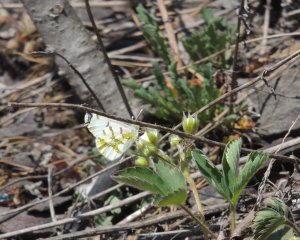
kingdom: Animalia
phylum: Arthropoda
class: Insecta
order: Lepidoptera
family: Pieridae
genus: Euchloe
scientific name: Euchloe olympia
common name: Olympia Marble
